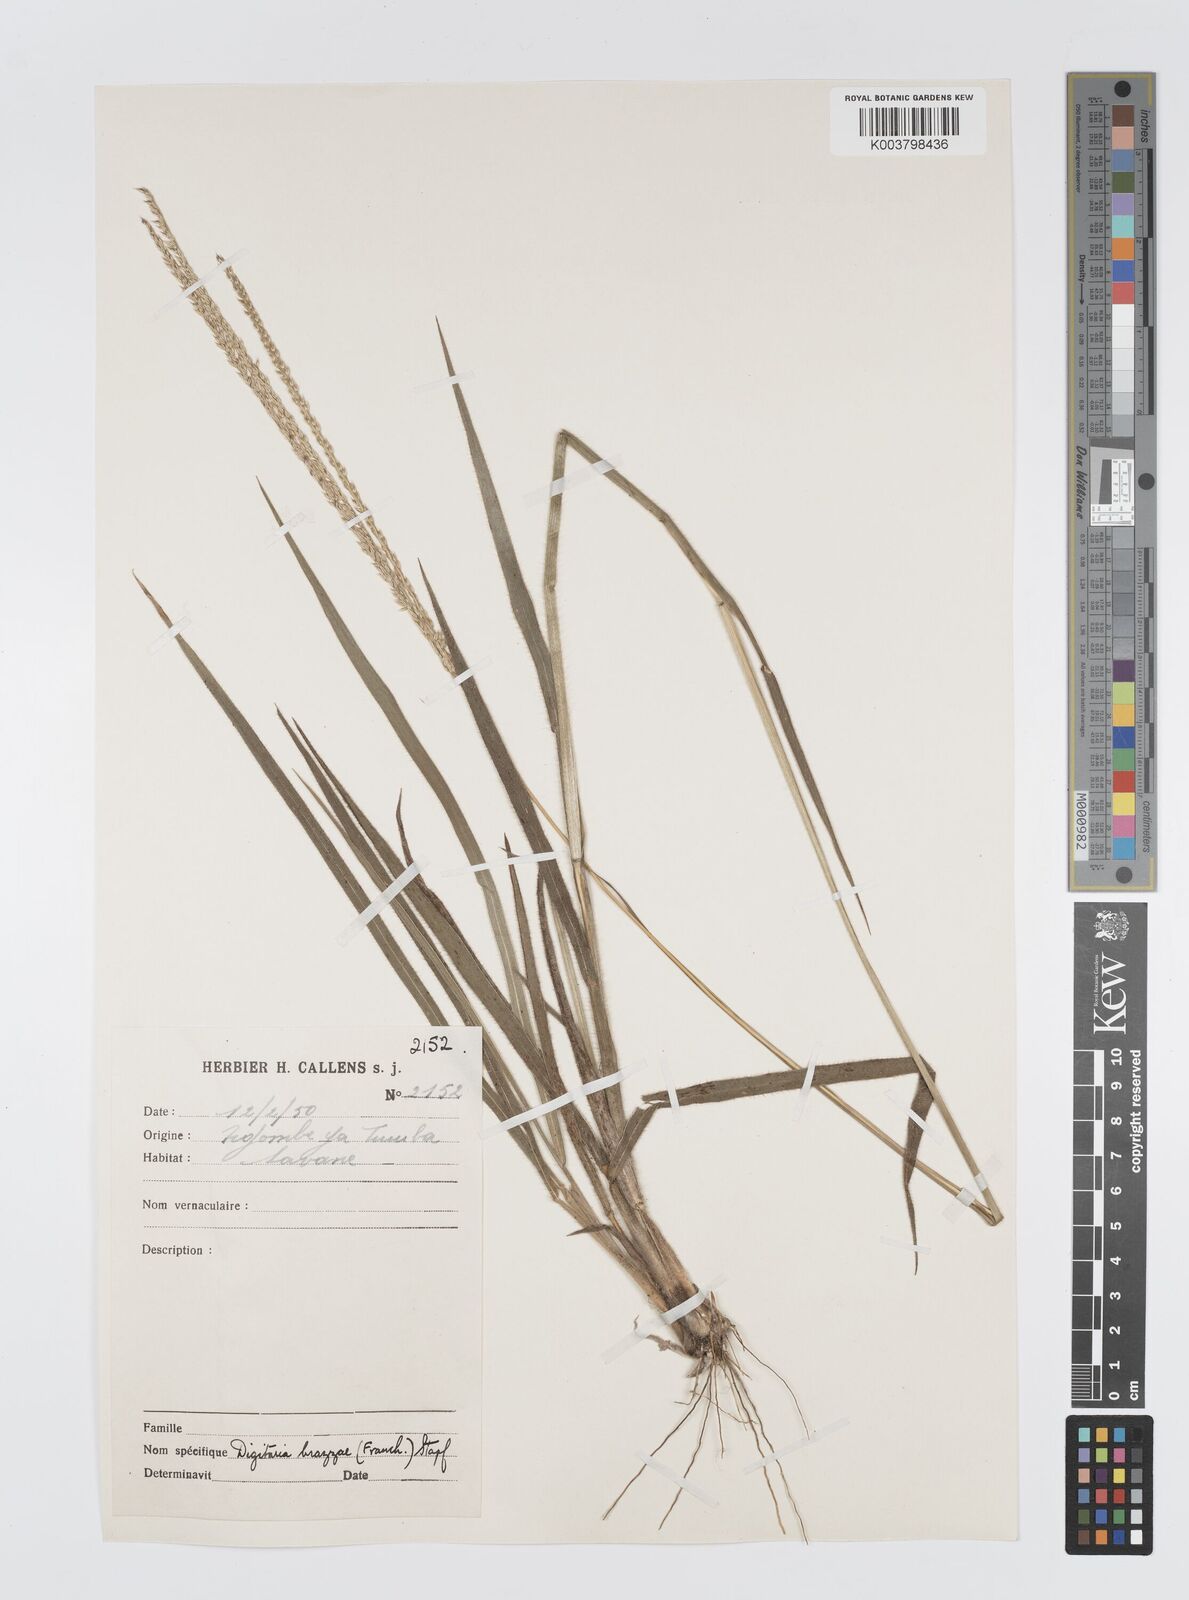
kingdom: Plantae
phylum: Tracheophyta
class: Liliopsida
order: Poales
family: Poaceae
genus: Digitaria
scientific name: Digitaria brazzae
